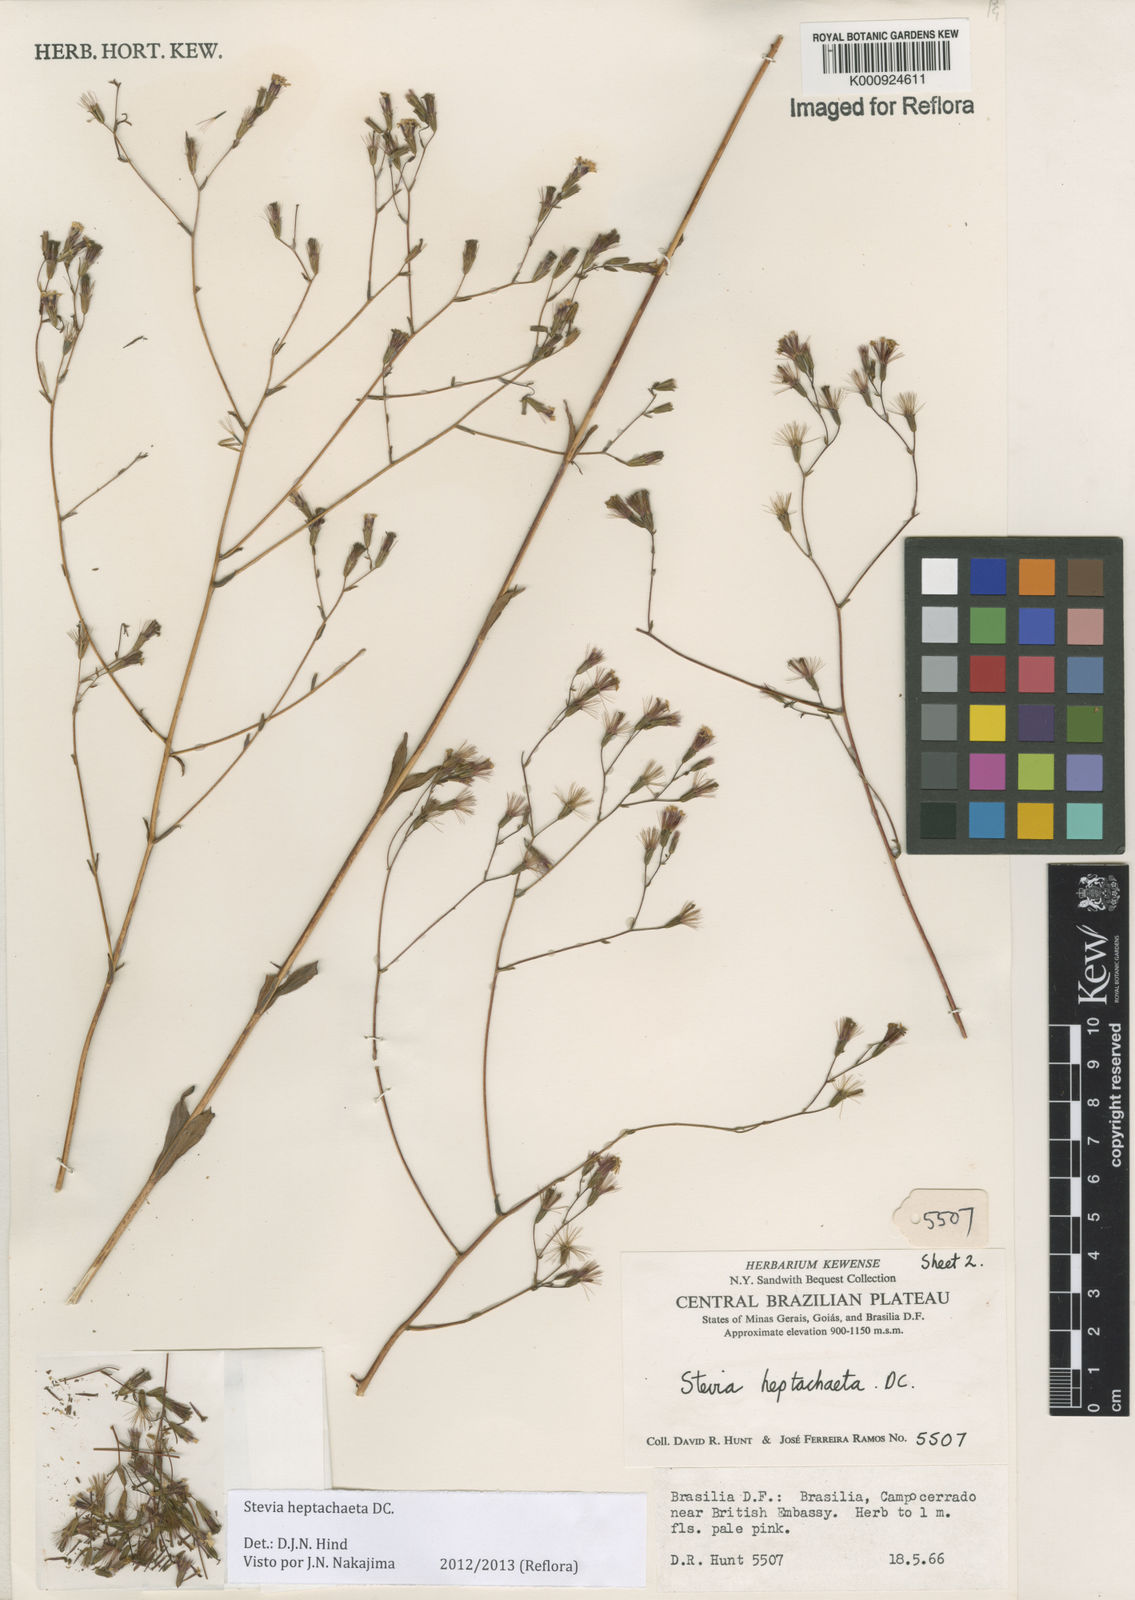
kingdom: Plantae
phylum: Tracheophyta
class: Magnoliopsida
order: Asterales
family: Asteraceae
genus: Stevia
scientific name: Stevia heptachaeta
